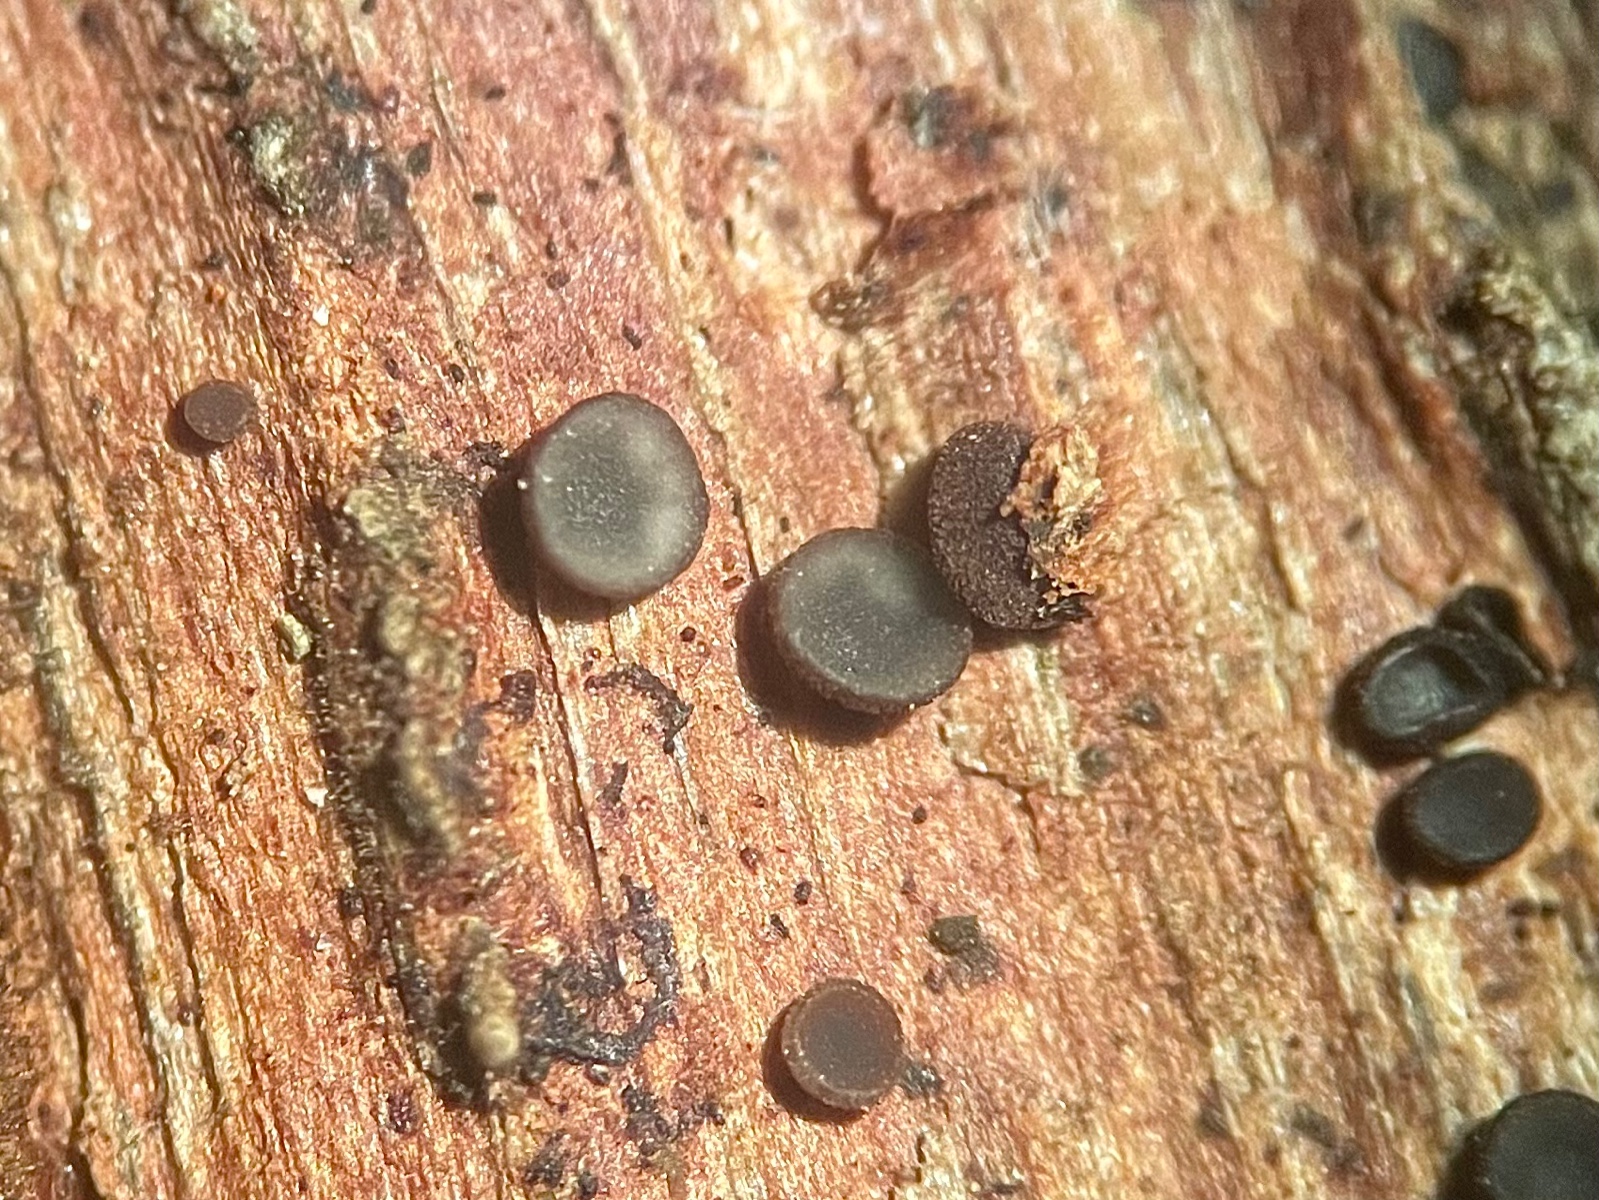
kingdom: Fungi
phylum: Ascomycota
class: Leotiomycetes
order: Helotiales
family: Mollisiaceae
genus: Mollisia
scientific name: Mollisia ligni
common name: ved-gråskive
